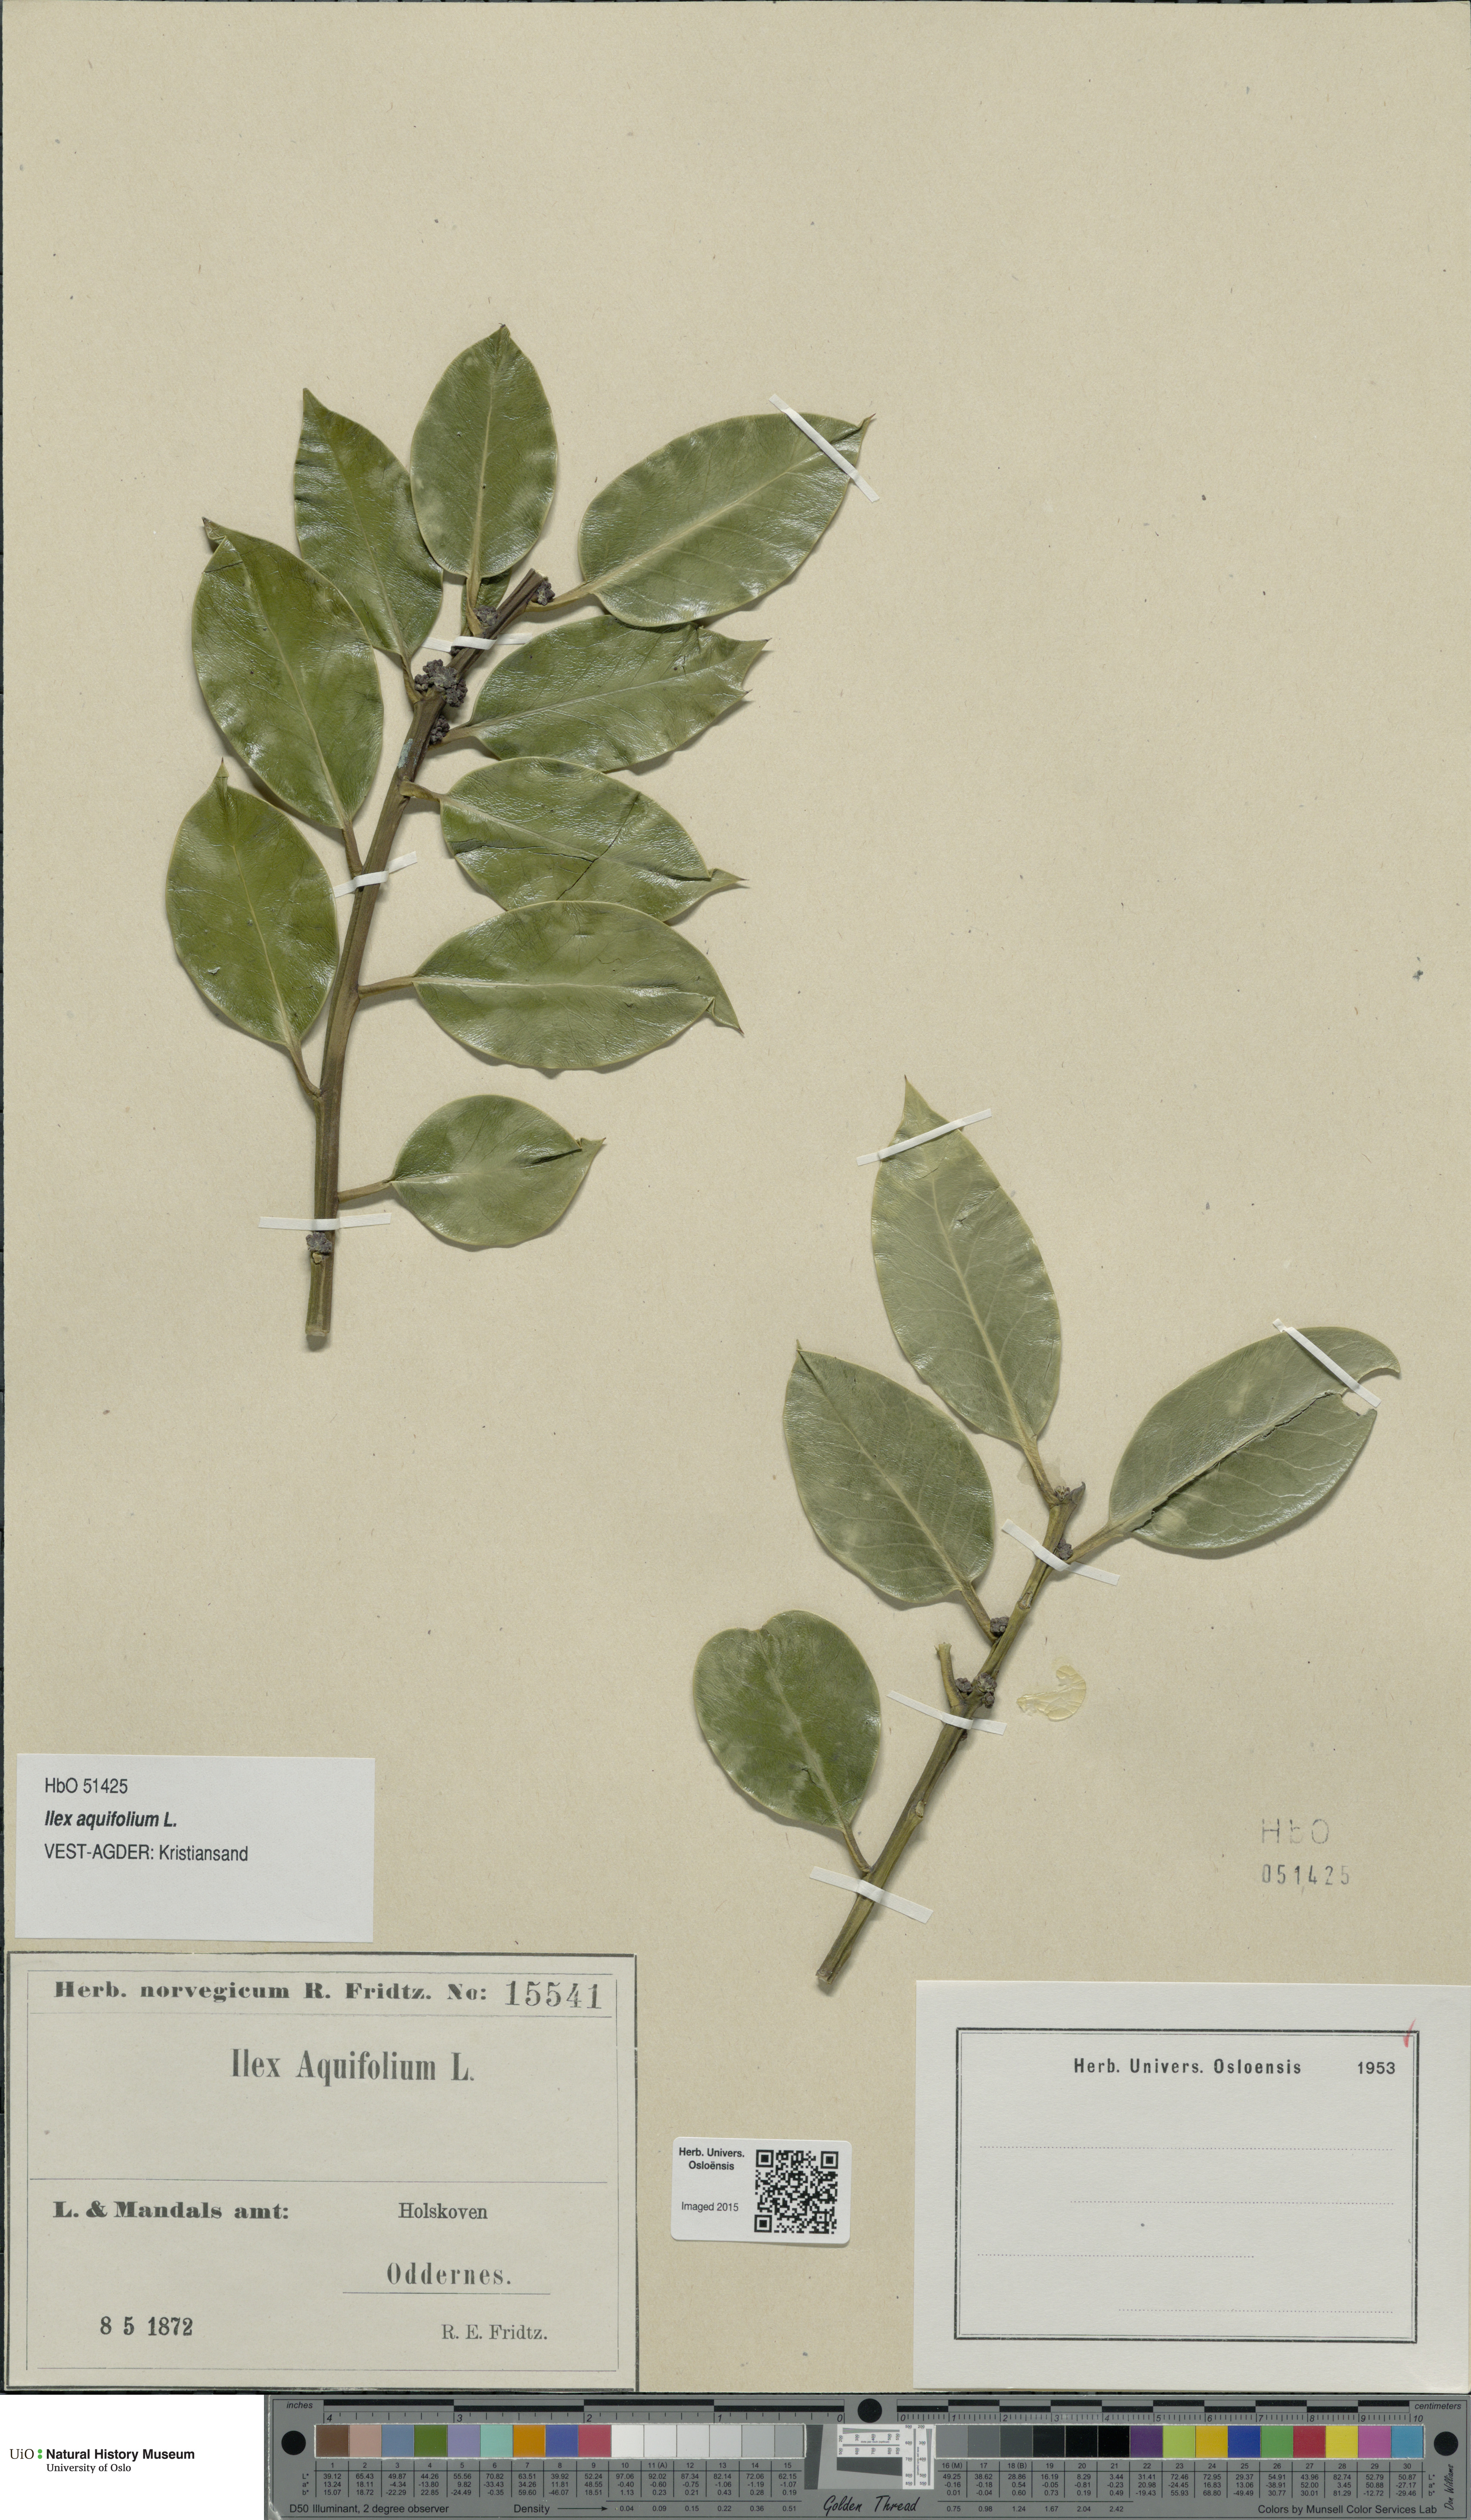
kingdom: Plantae
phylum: Tracheophyta
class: Magnoliopsida
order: Aquifoliales
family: Aquifoliaceae
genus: Ilex
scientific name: Ilex aquifolium
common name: English holly
